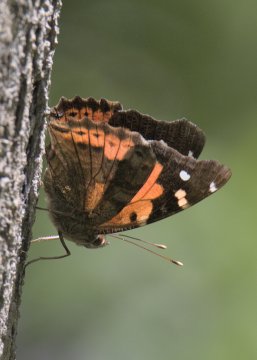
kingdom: Animalia
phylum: Arthropoda
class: Insecta
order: Lepidoptera
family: Nymphalidae
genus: Vanessa
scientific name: Vanessa tameamea
